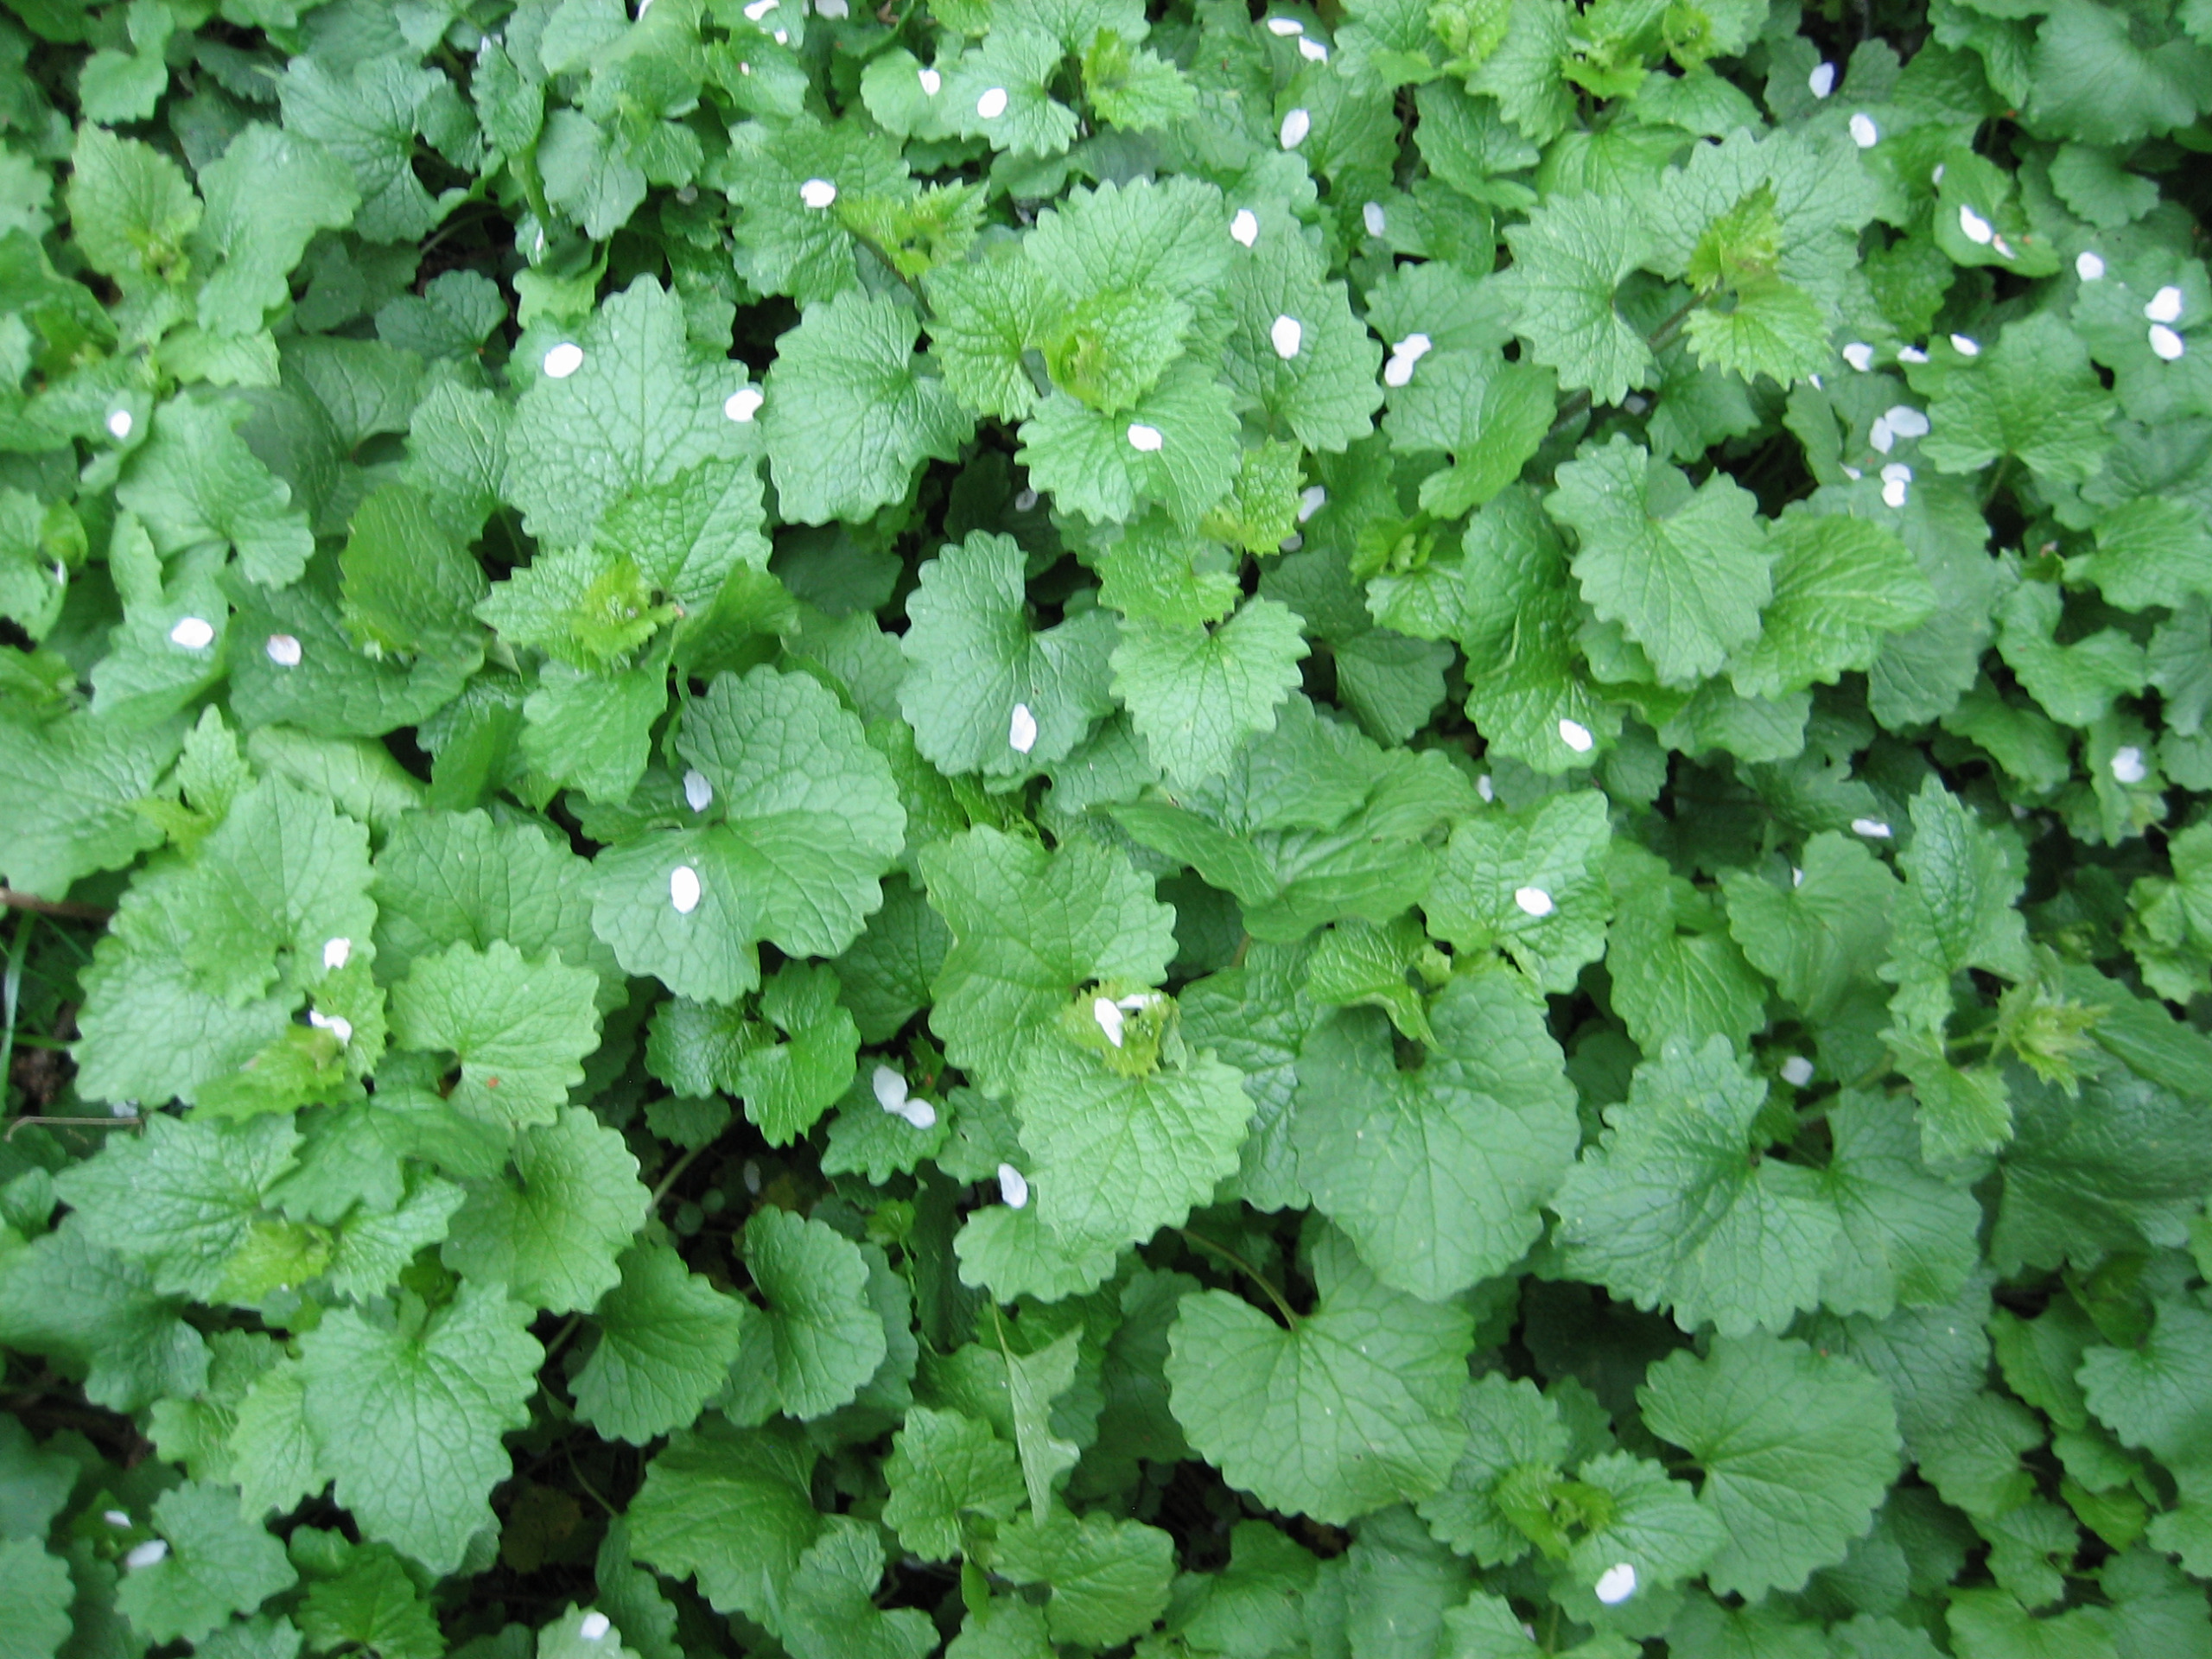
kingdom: Plantae
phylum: Tracheophyta
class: Magnoliopsida
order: Brassicales
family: Brassicaceae
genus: Alliaria
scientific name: Alliaria petiolata
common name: Løgkarse
